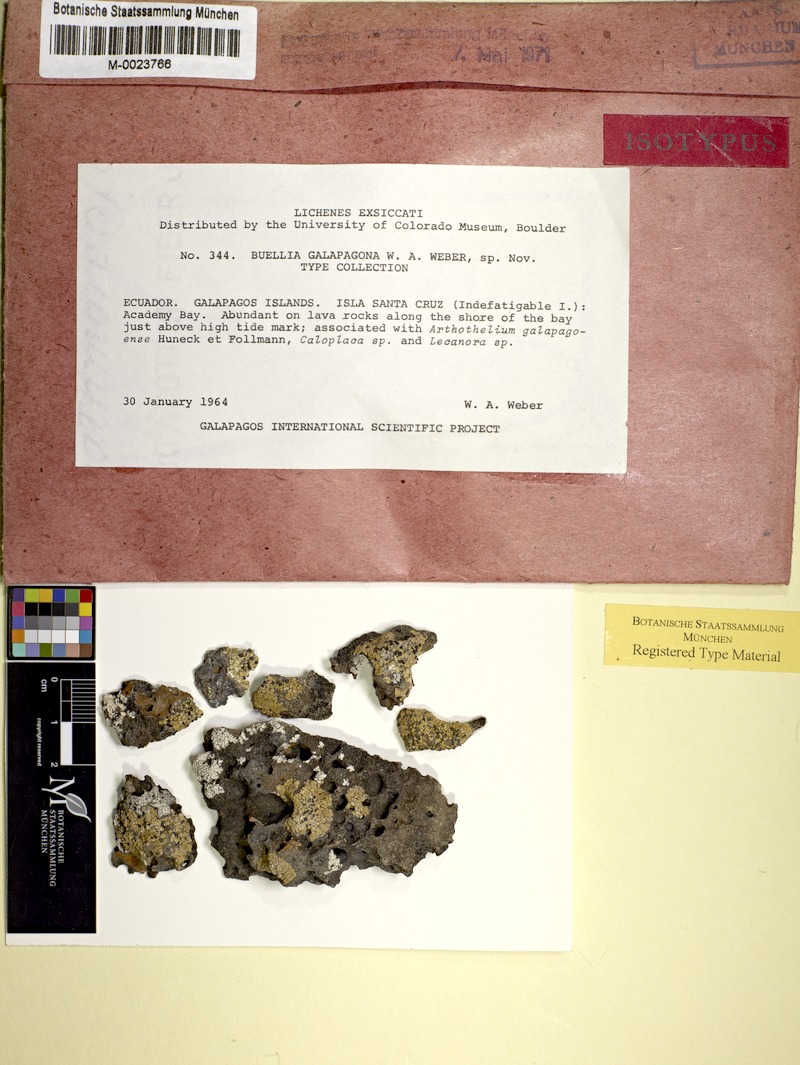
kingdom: Fungi
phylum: Ascomycota
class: Lecanoromycetes
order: Caliciales
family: Caliciaceae
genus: Buellia
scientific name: Buellia galapagona
